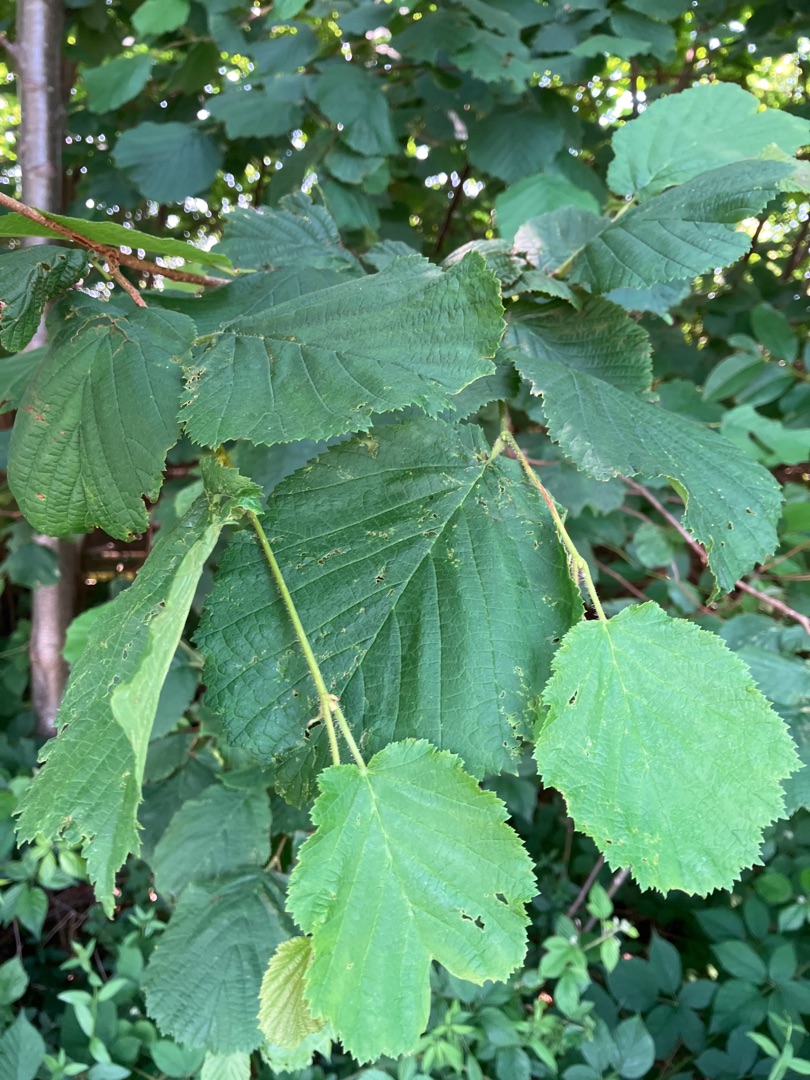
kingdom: Plantae
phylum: Tracheophyta
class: Magnoliopsida
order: Fagales
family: Betulaceae
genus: Corylus
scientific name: Corylus avellana
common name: Hassel
